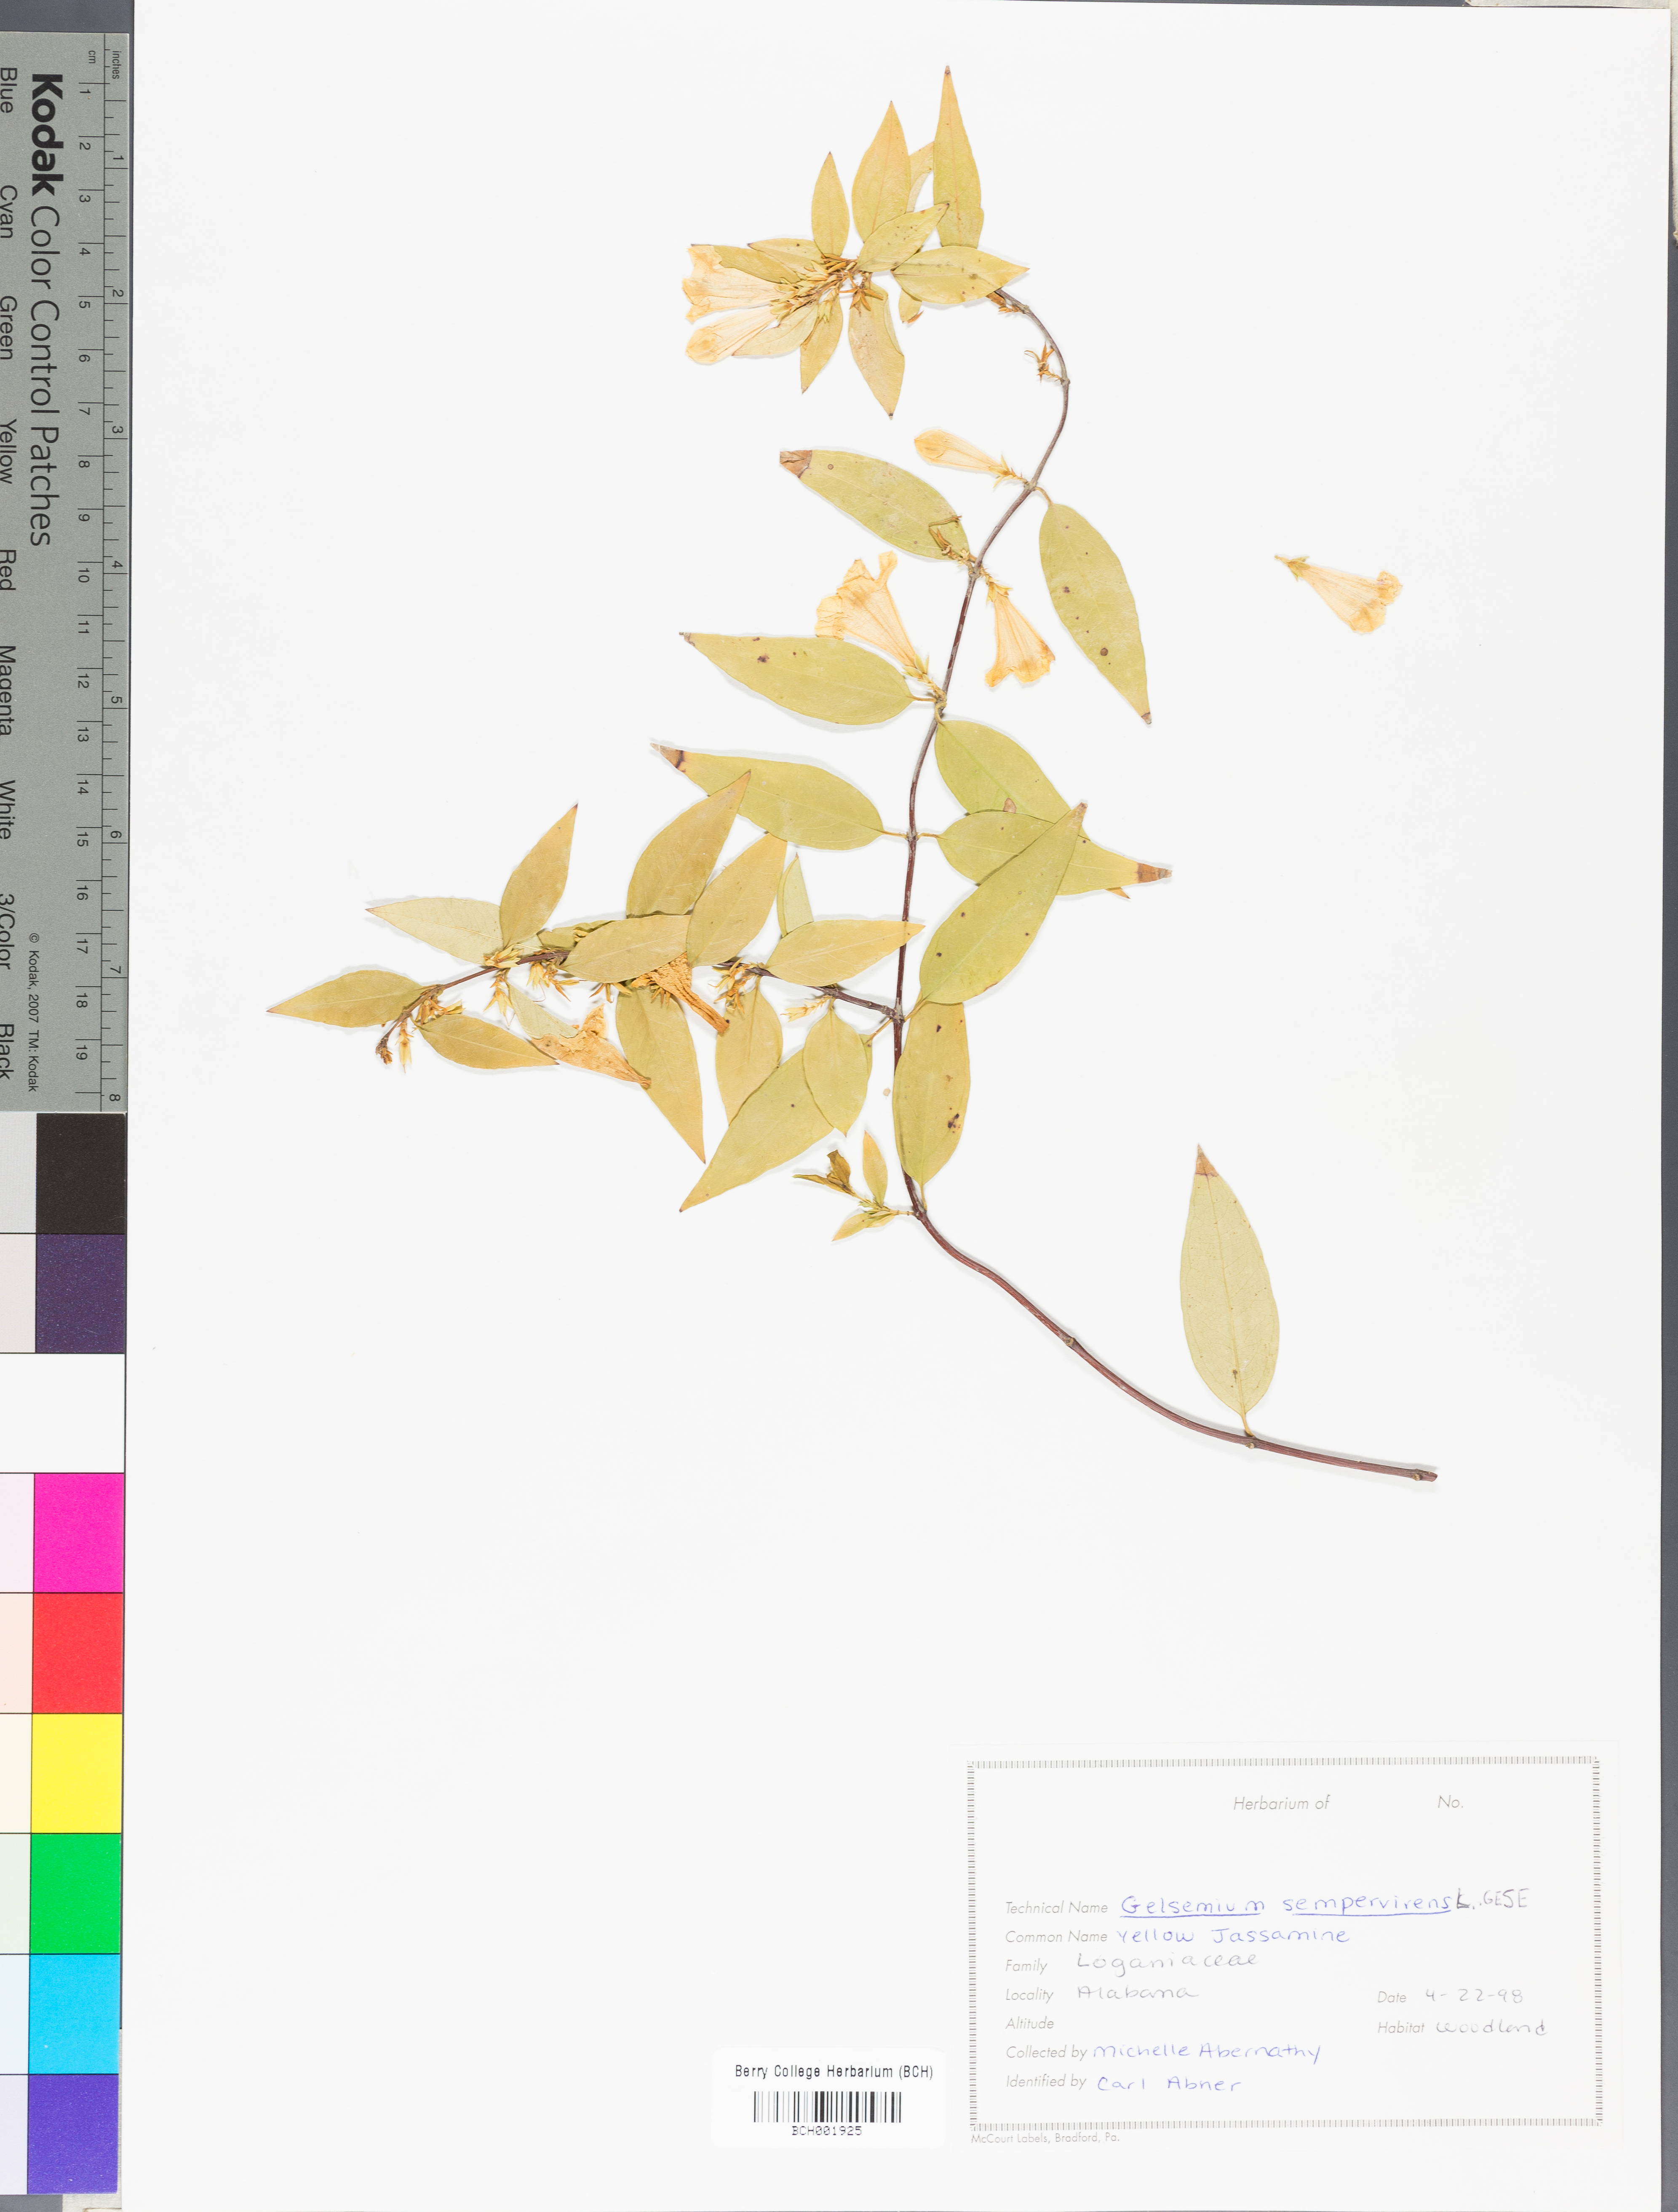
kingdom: Plantae
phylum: Tracheophyta
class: Magnoliopsida
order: Gentianales
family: Gelsemiaceae
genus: Gelsemium
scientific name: Gelsemium sempervirens
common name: Carolina-jasmine
